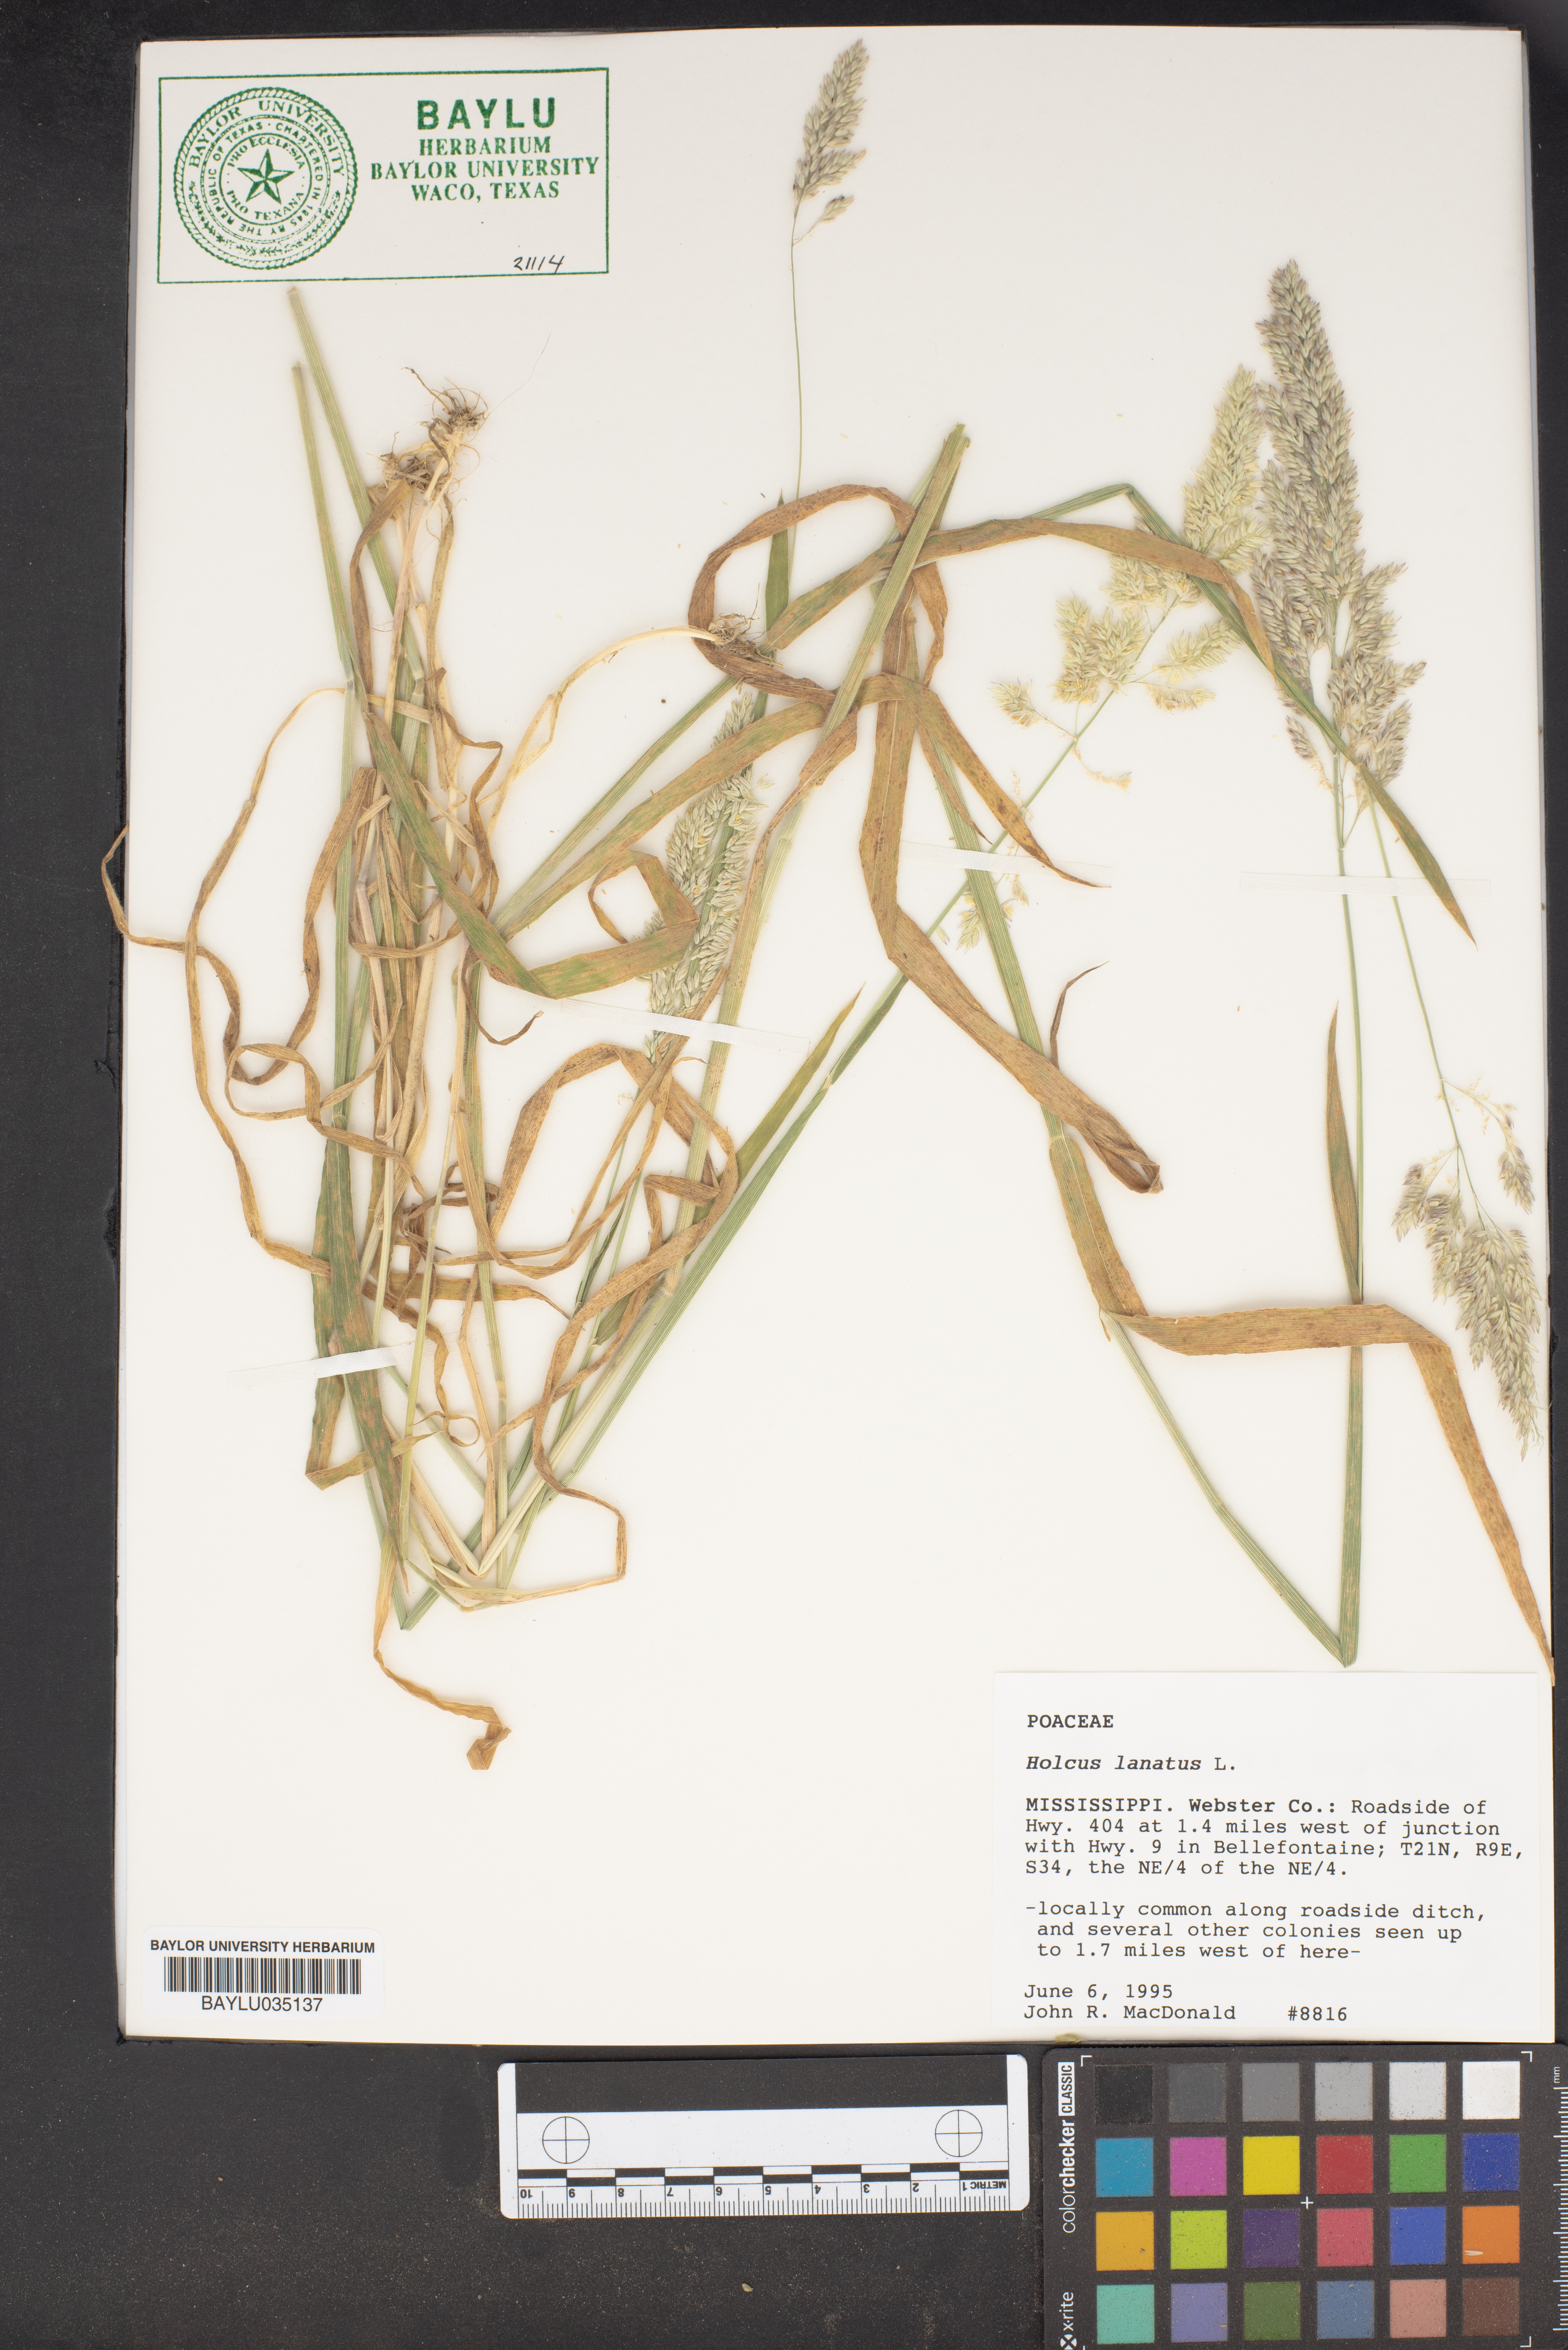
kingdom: Plantae
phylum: Tracheophyta
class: Liliopsida
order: Poales
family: Poaceae
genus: Holcus
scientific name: Holcus lanatus
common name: Yorkshire-fog
